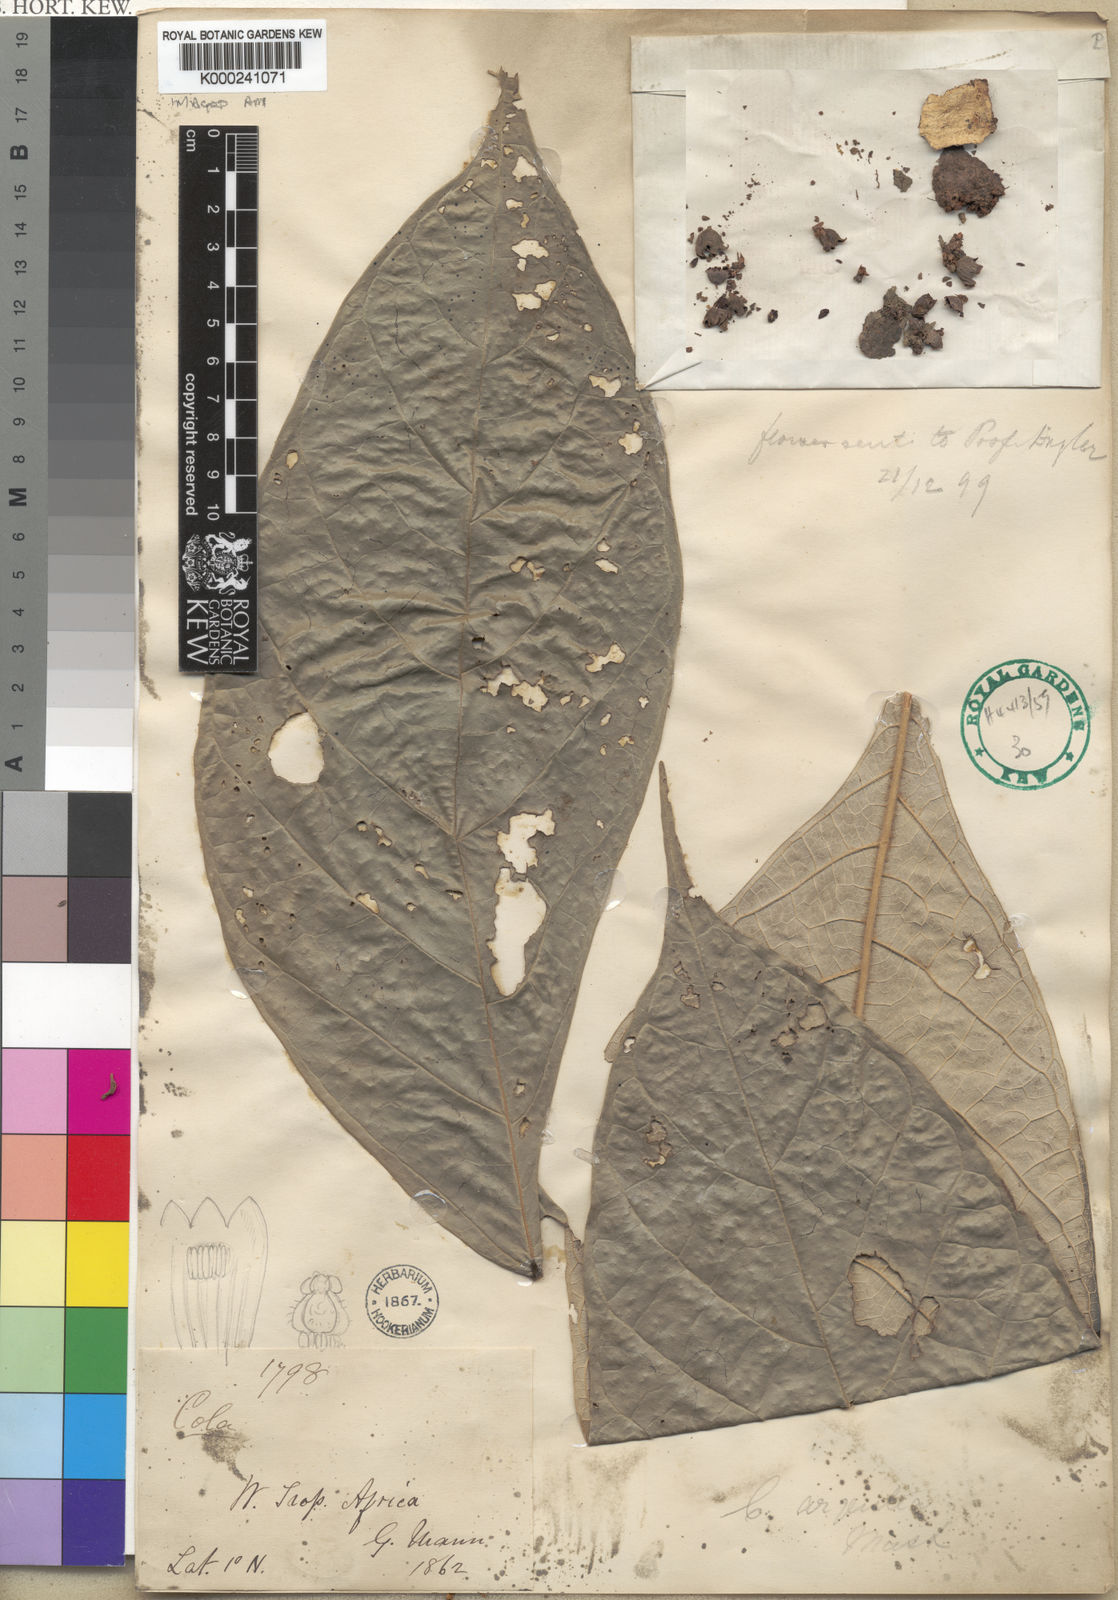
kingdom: Plantae
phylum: Tracheophyta
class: Magnoliopsida
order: Malvales
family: Malvaceae
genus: Cola
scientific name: Cola argentea
